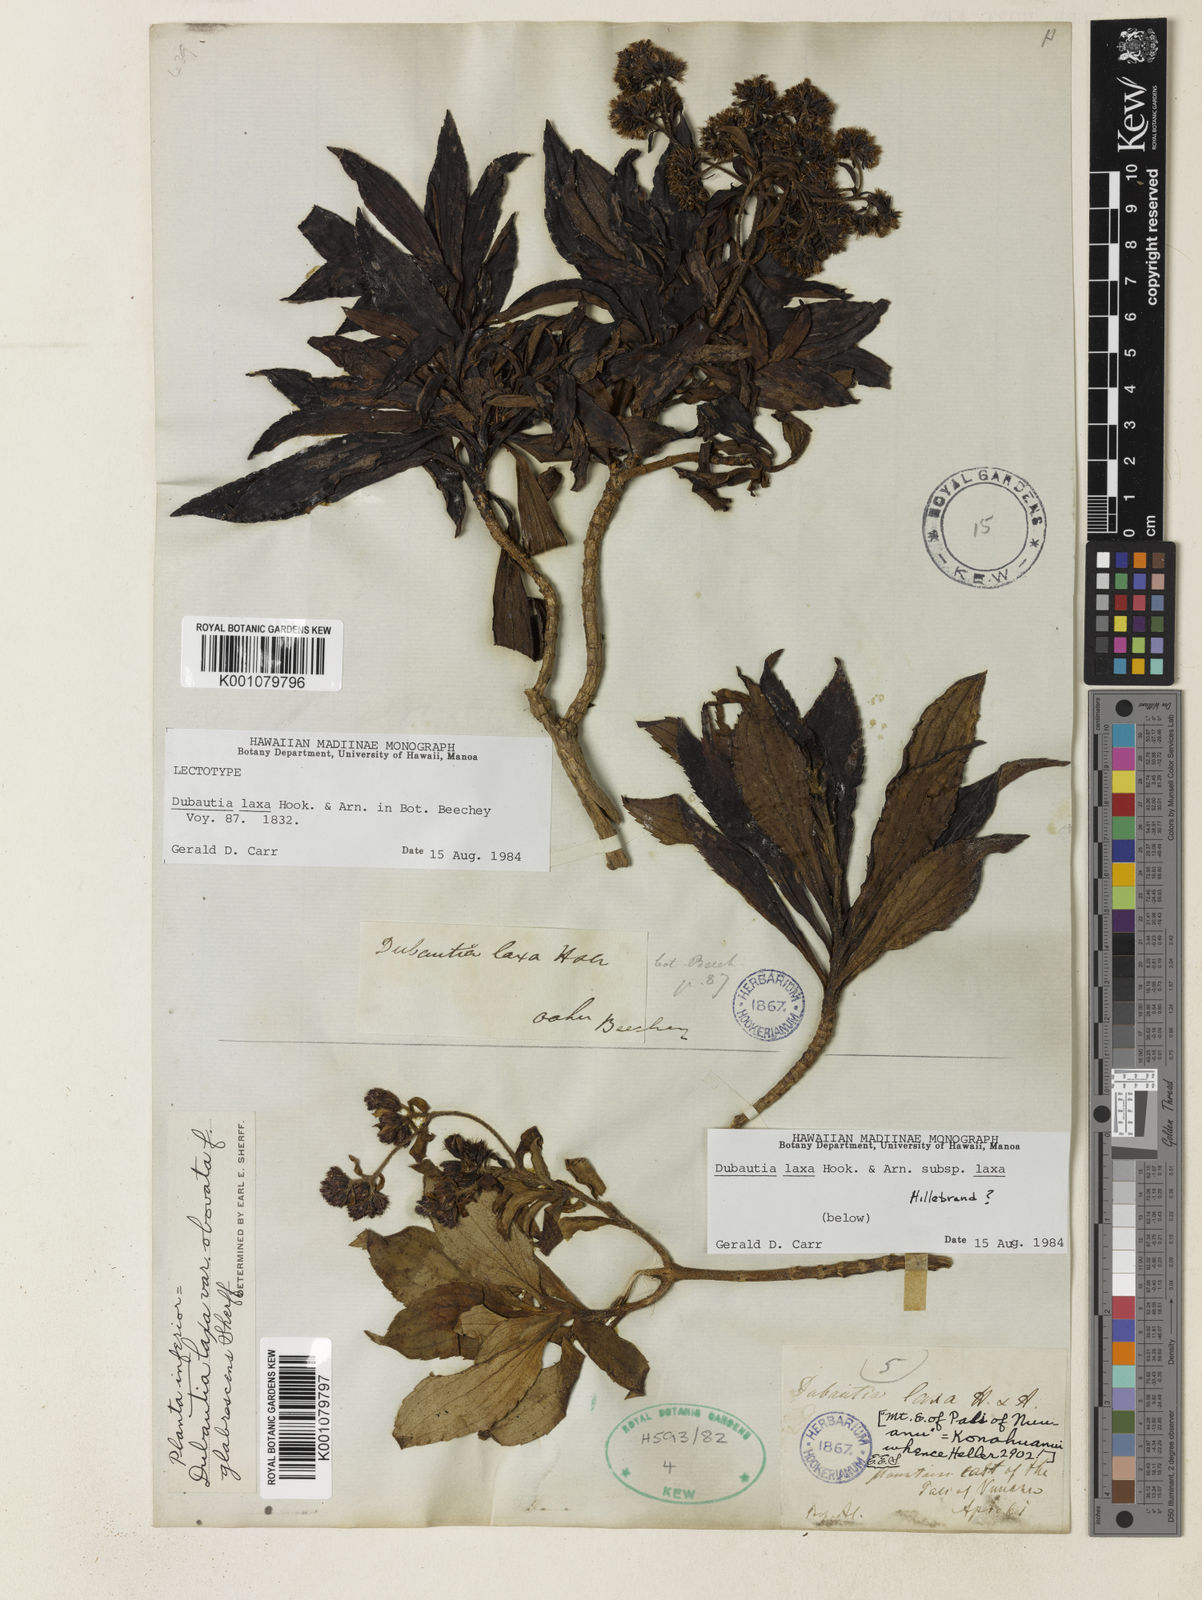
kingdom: Plantae
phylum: Tracheophyta
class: Magnoliopsida
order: Asterales
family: Asteraceae
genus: Dubautia
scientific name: Dubautia laxa
